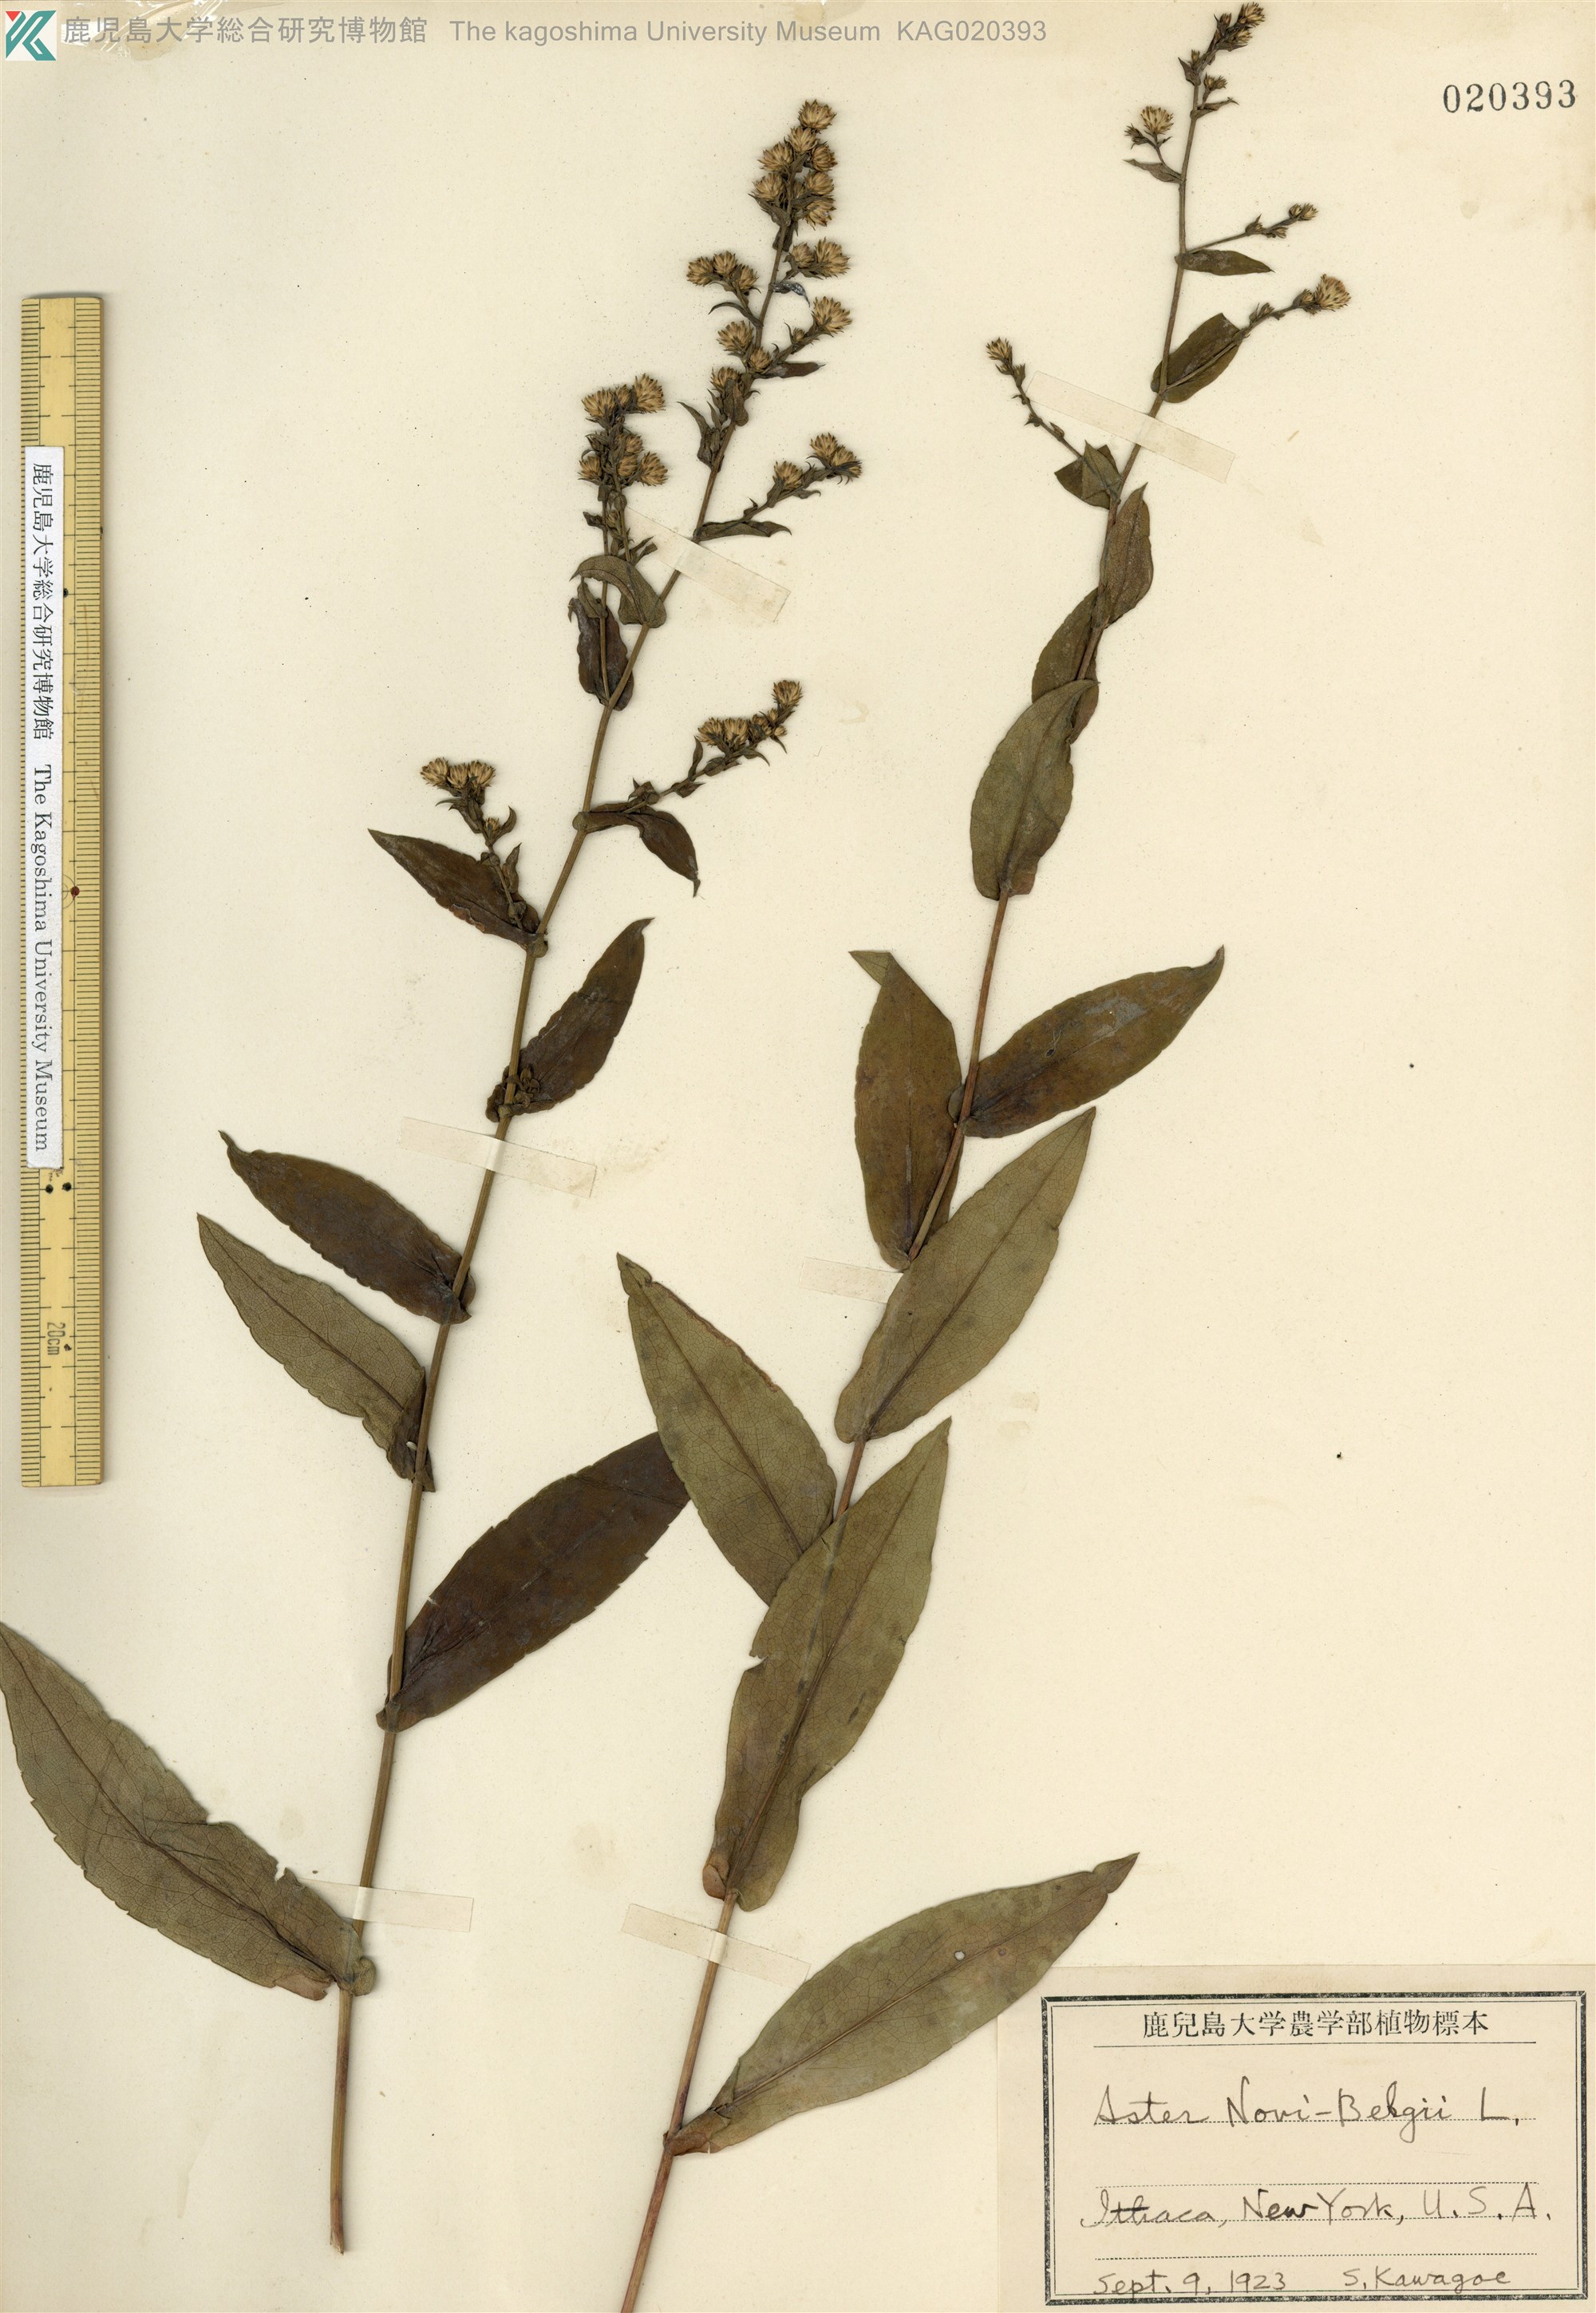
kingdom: Plantae
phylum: Tracheophyta
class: Magnoliopsida
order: Asterales
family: Asteraceae
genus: Symphyotrichum
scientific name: Symphyotrichum novi-belgii
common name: Michaelmas daisy
